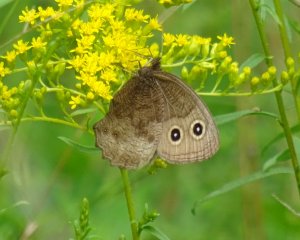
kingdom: Animalia
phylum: Arthropoda
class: Insecta
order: Lepidoptera
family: Nymphalidae
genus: Cercyonis
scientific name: Cercyonis pegala
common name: Common Wood-Nymph
